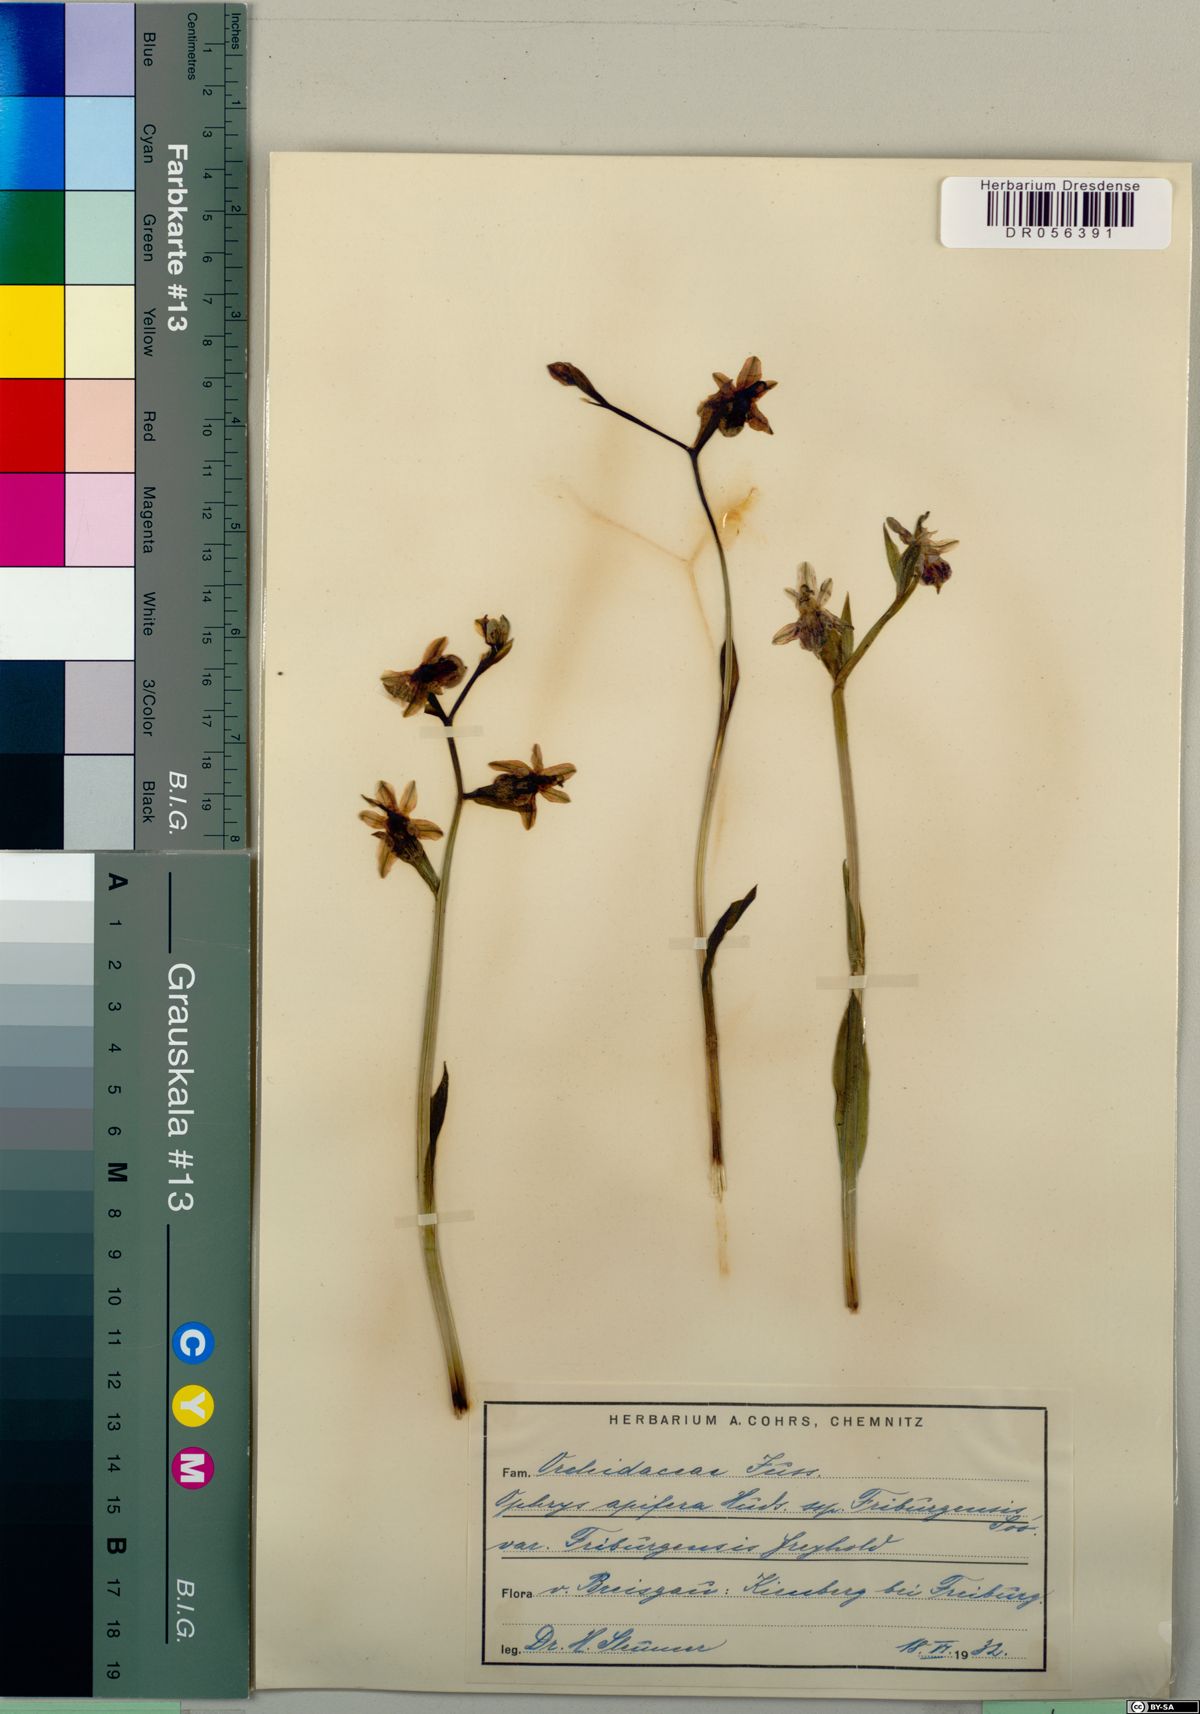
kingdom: Plantae
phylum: Tracheophyta
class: Liliopsida
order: Asparagales
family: Orchidaceae
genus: Ophrys
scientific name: Ophrys apifera
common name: Bee orchid
